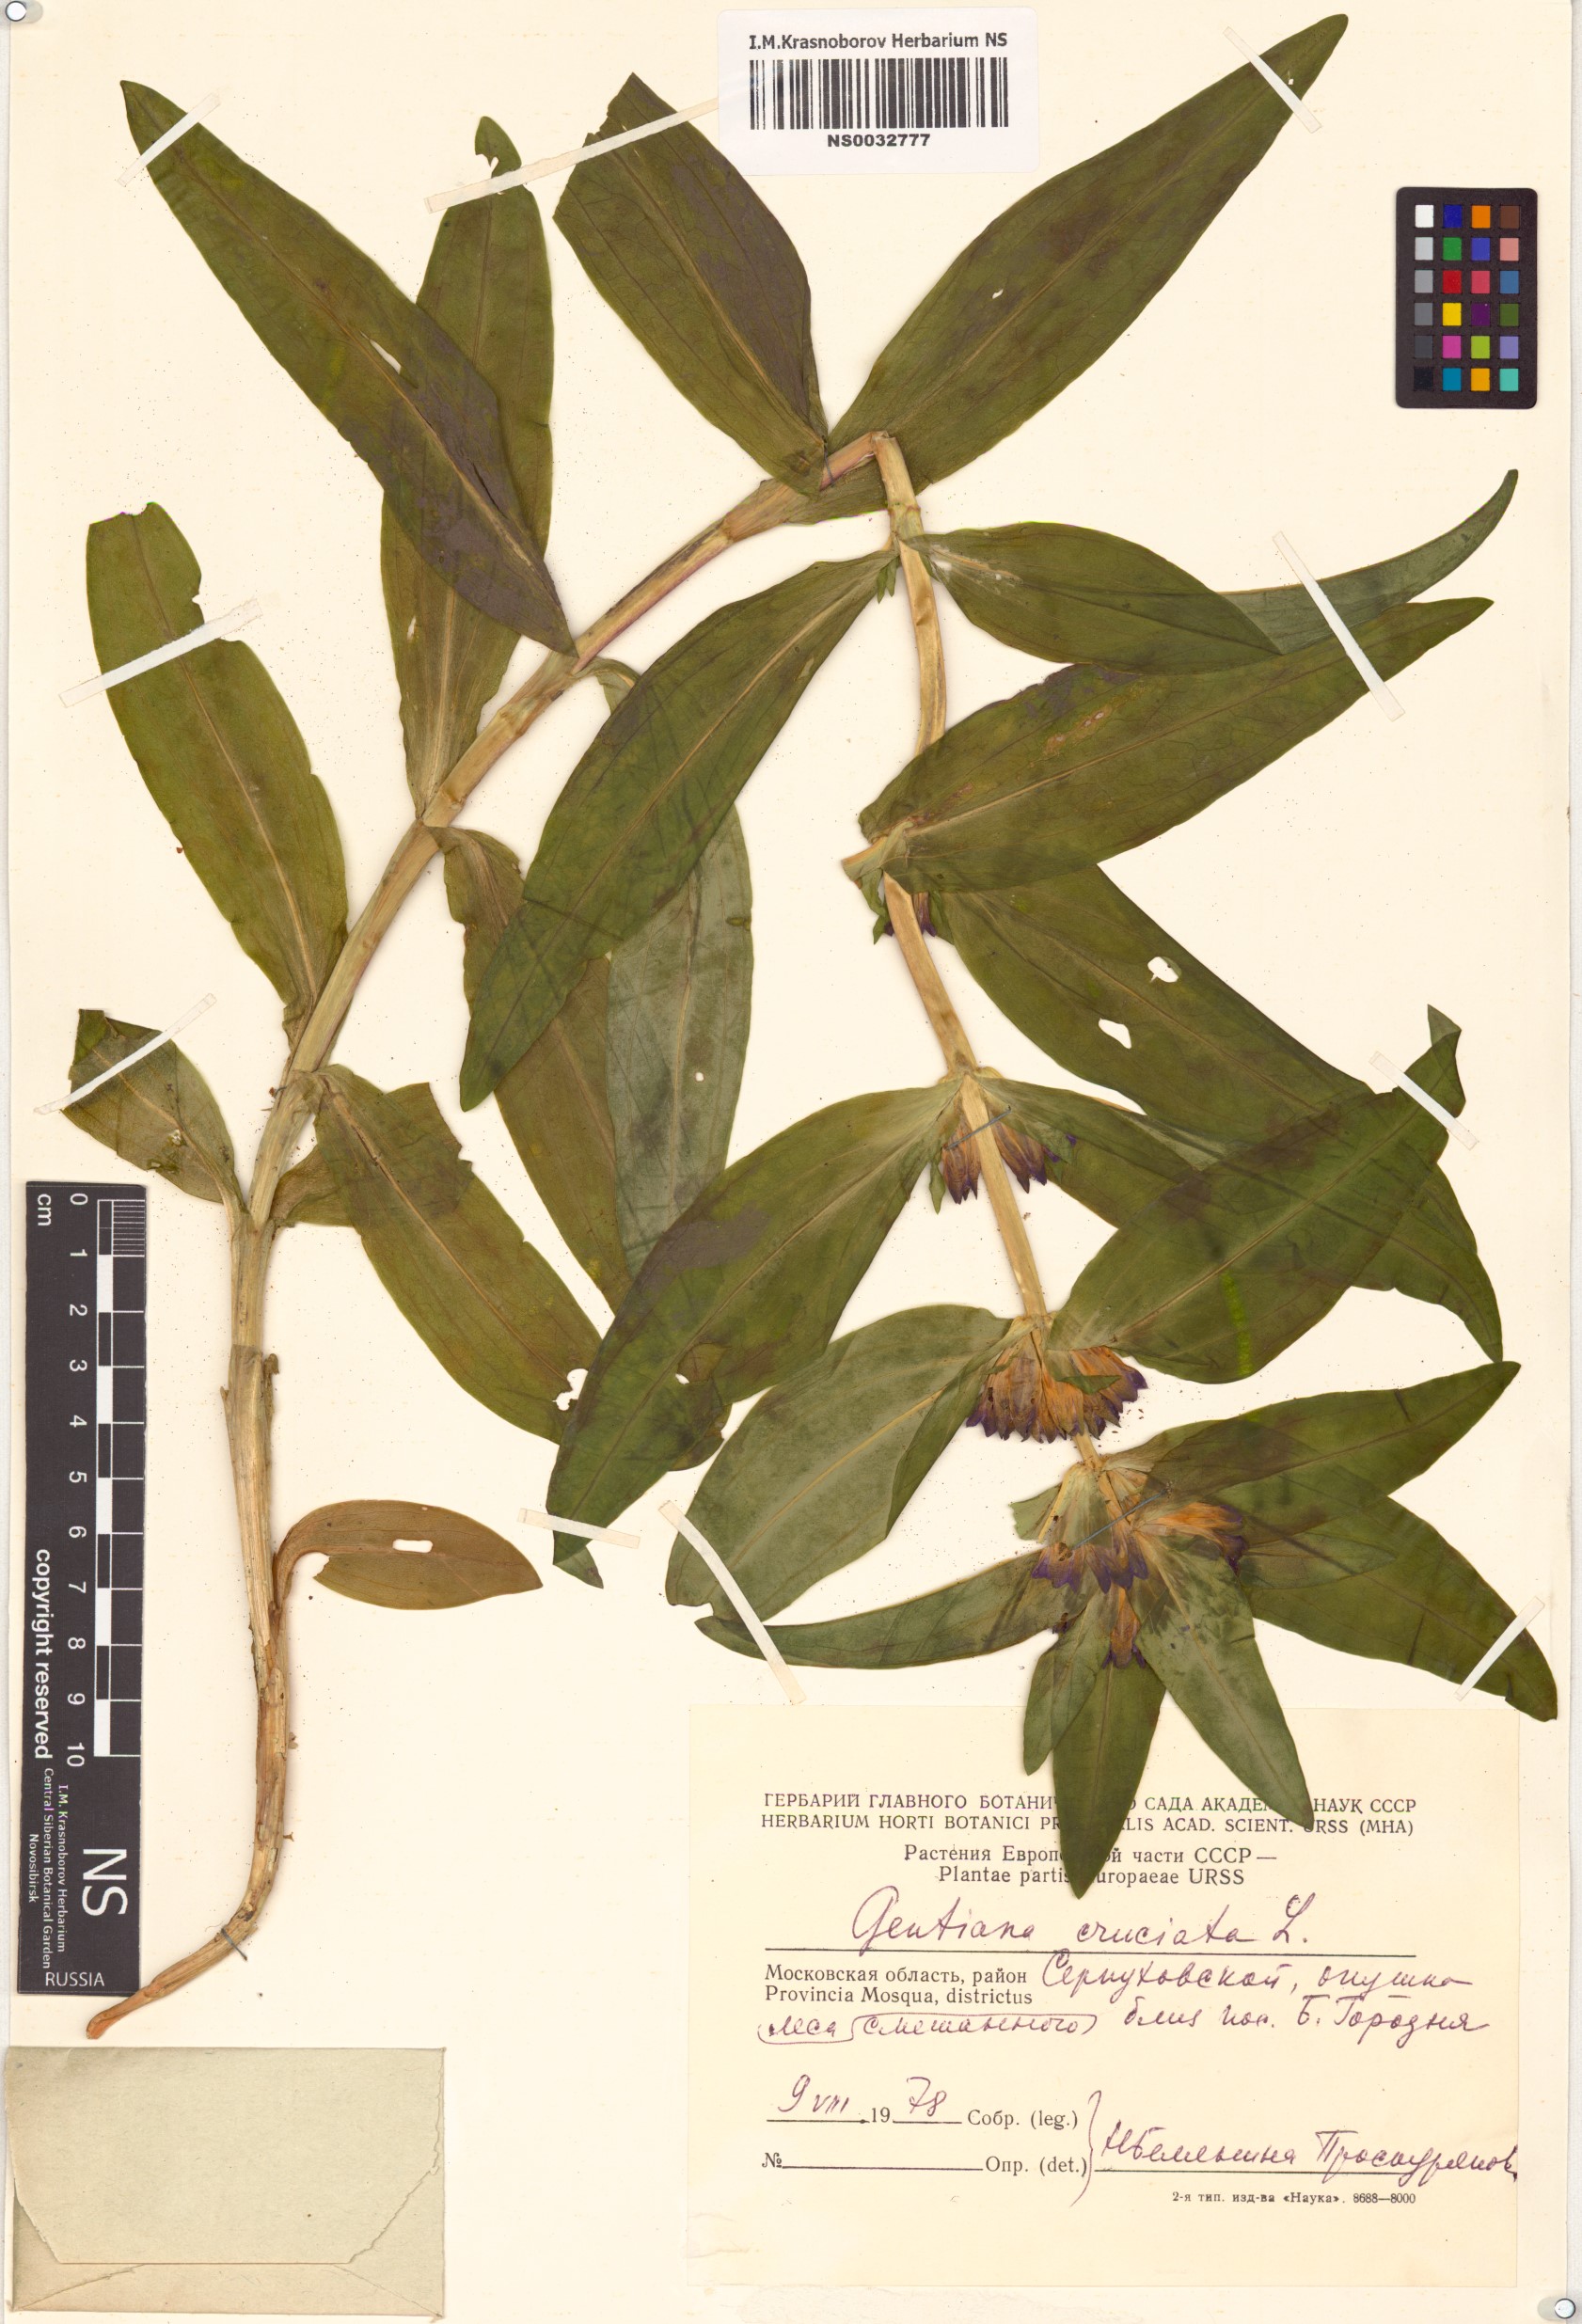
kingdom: Plantae
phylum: Tracheophyta
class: Magnoliopsida
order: Gentianales
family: Gentianaceae
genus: Gentiana
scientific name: Gentiana cruciata
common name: Cross gentian
